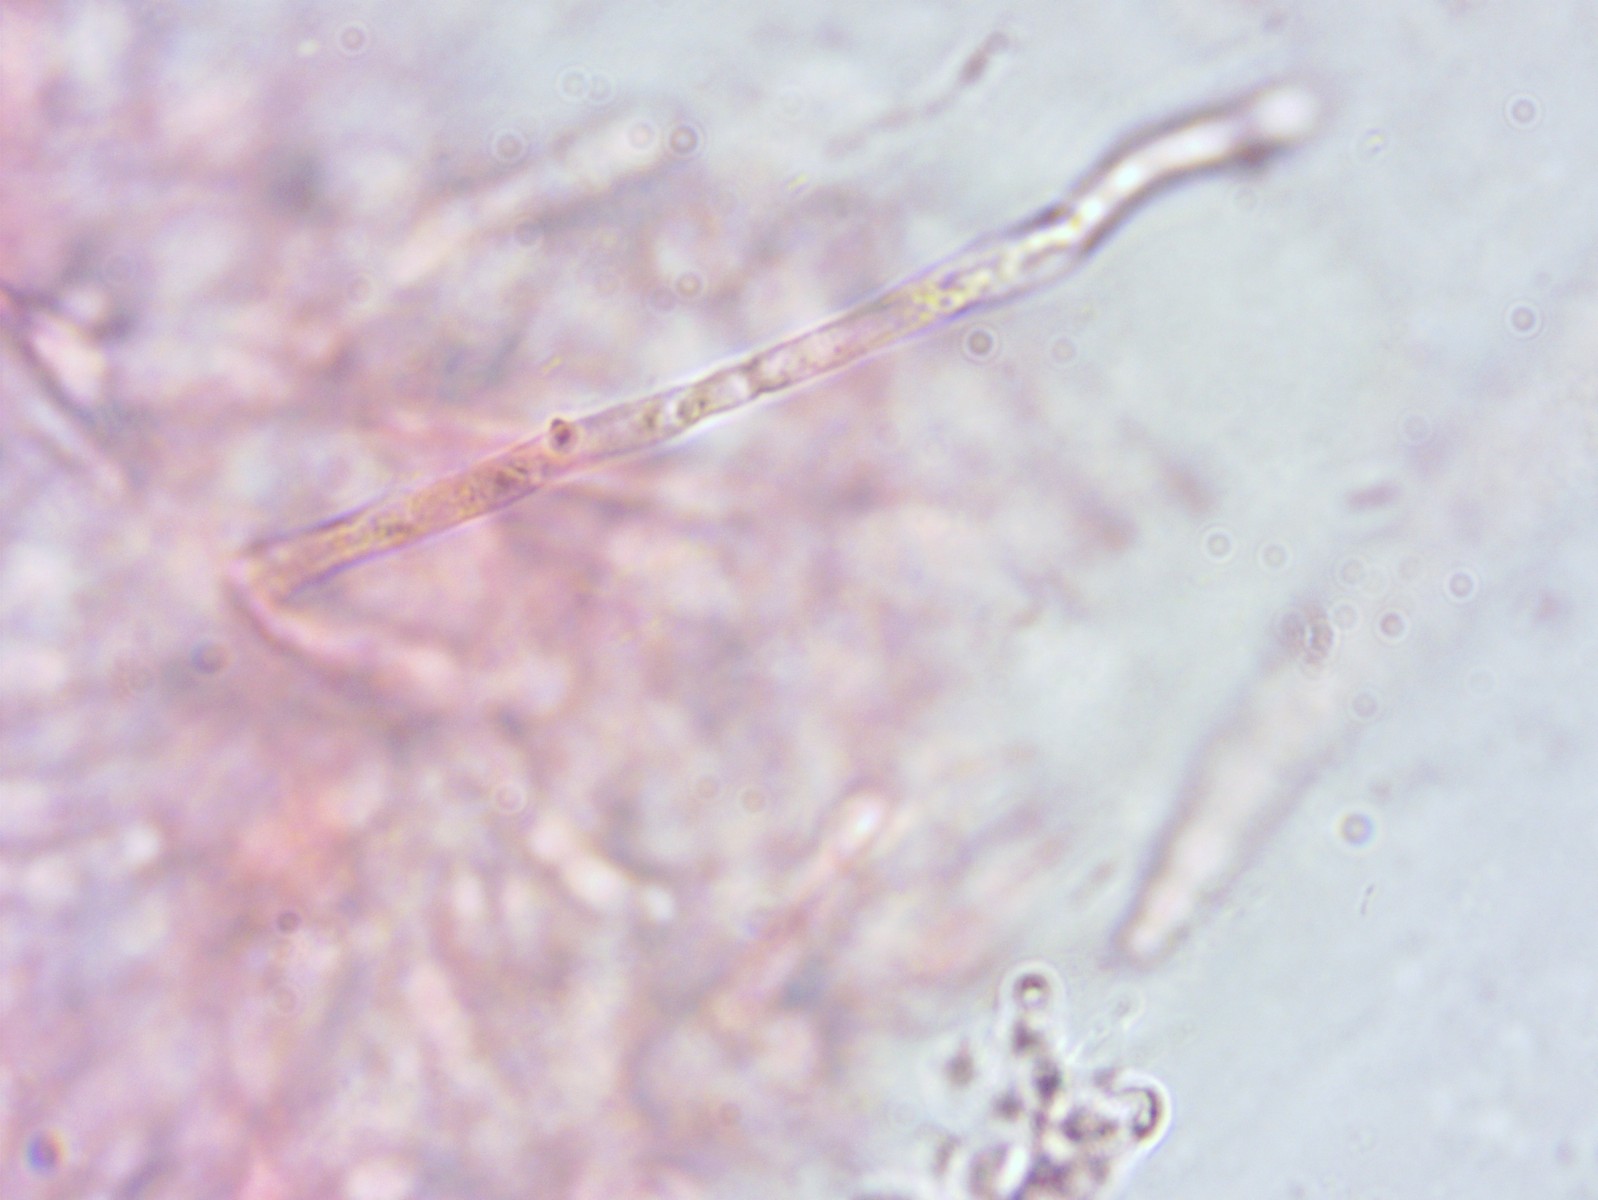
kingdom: Fungi
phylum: Basidiomycota
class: Agaricomycetes
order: Russulales
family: Russulaceae
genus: Russula
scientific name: Russula
